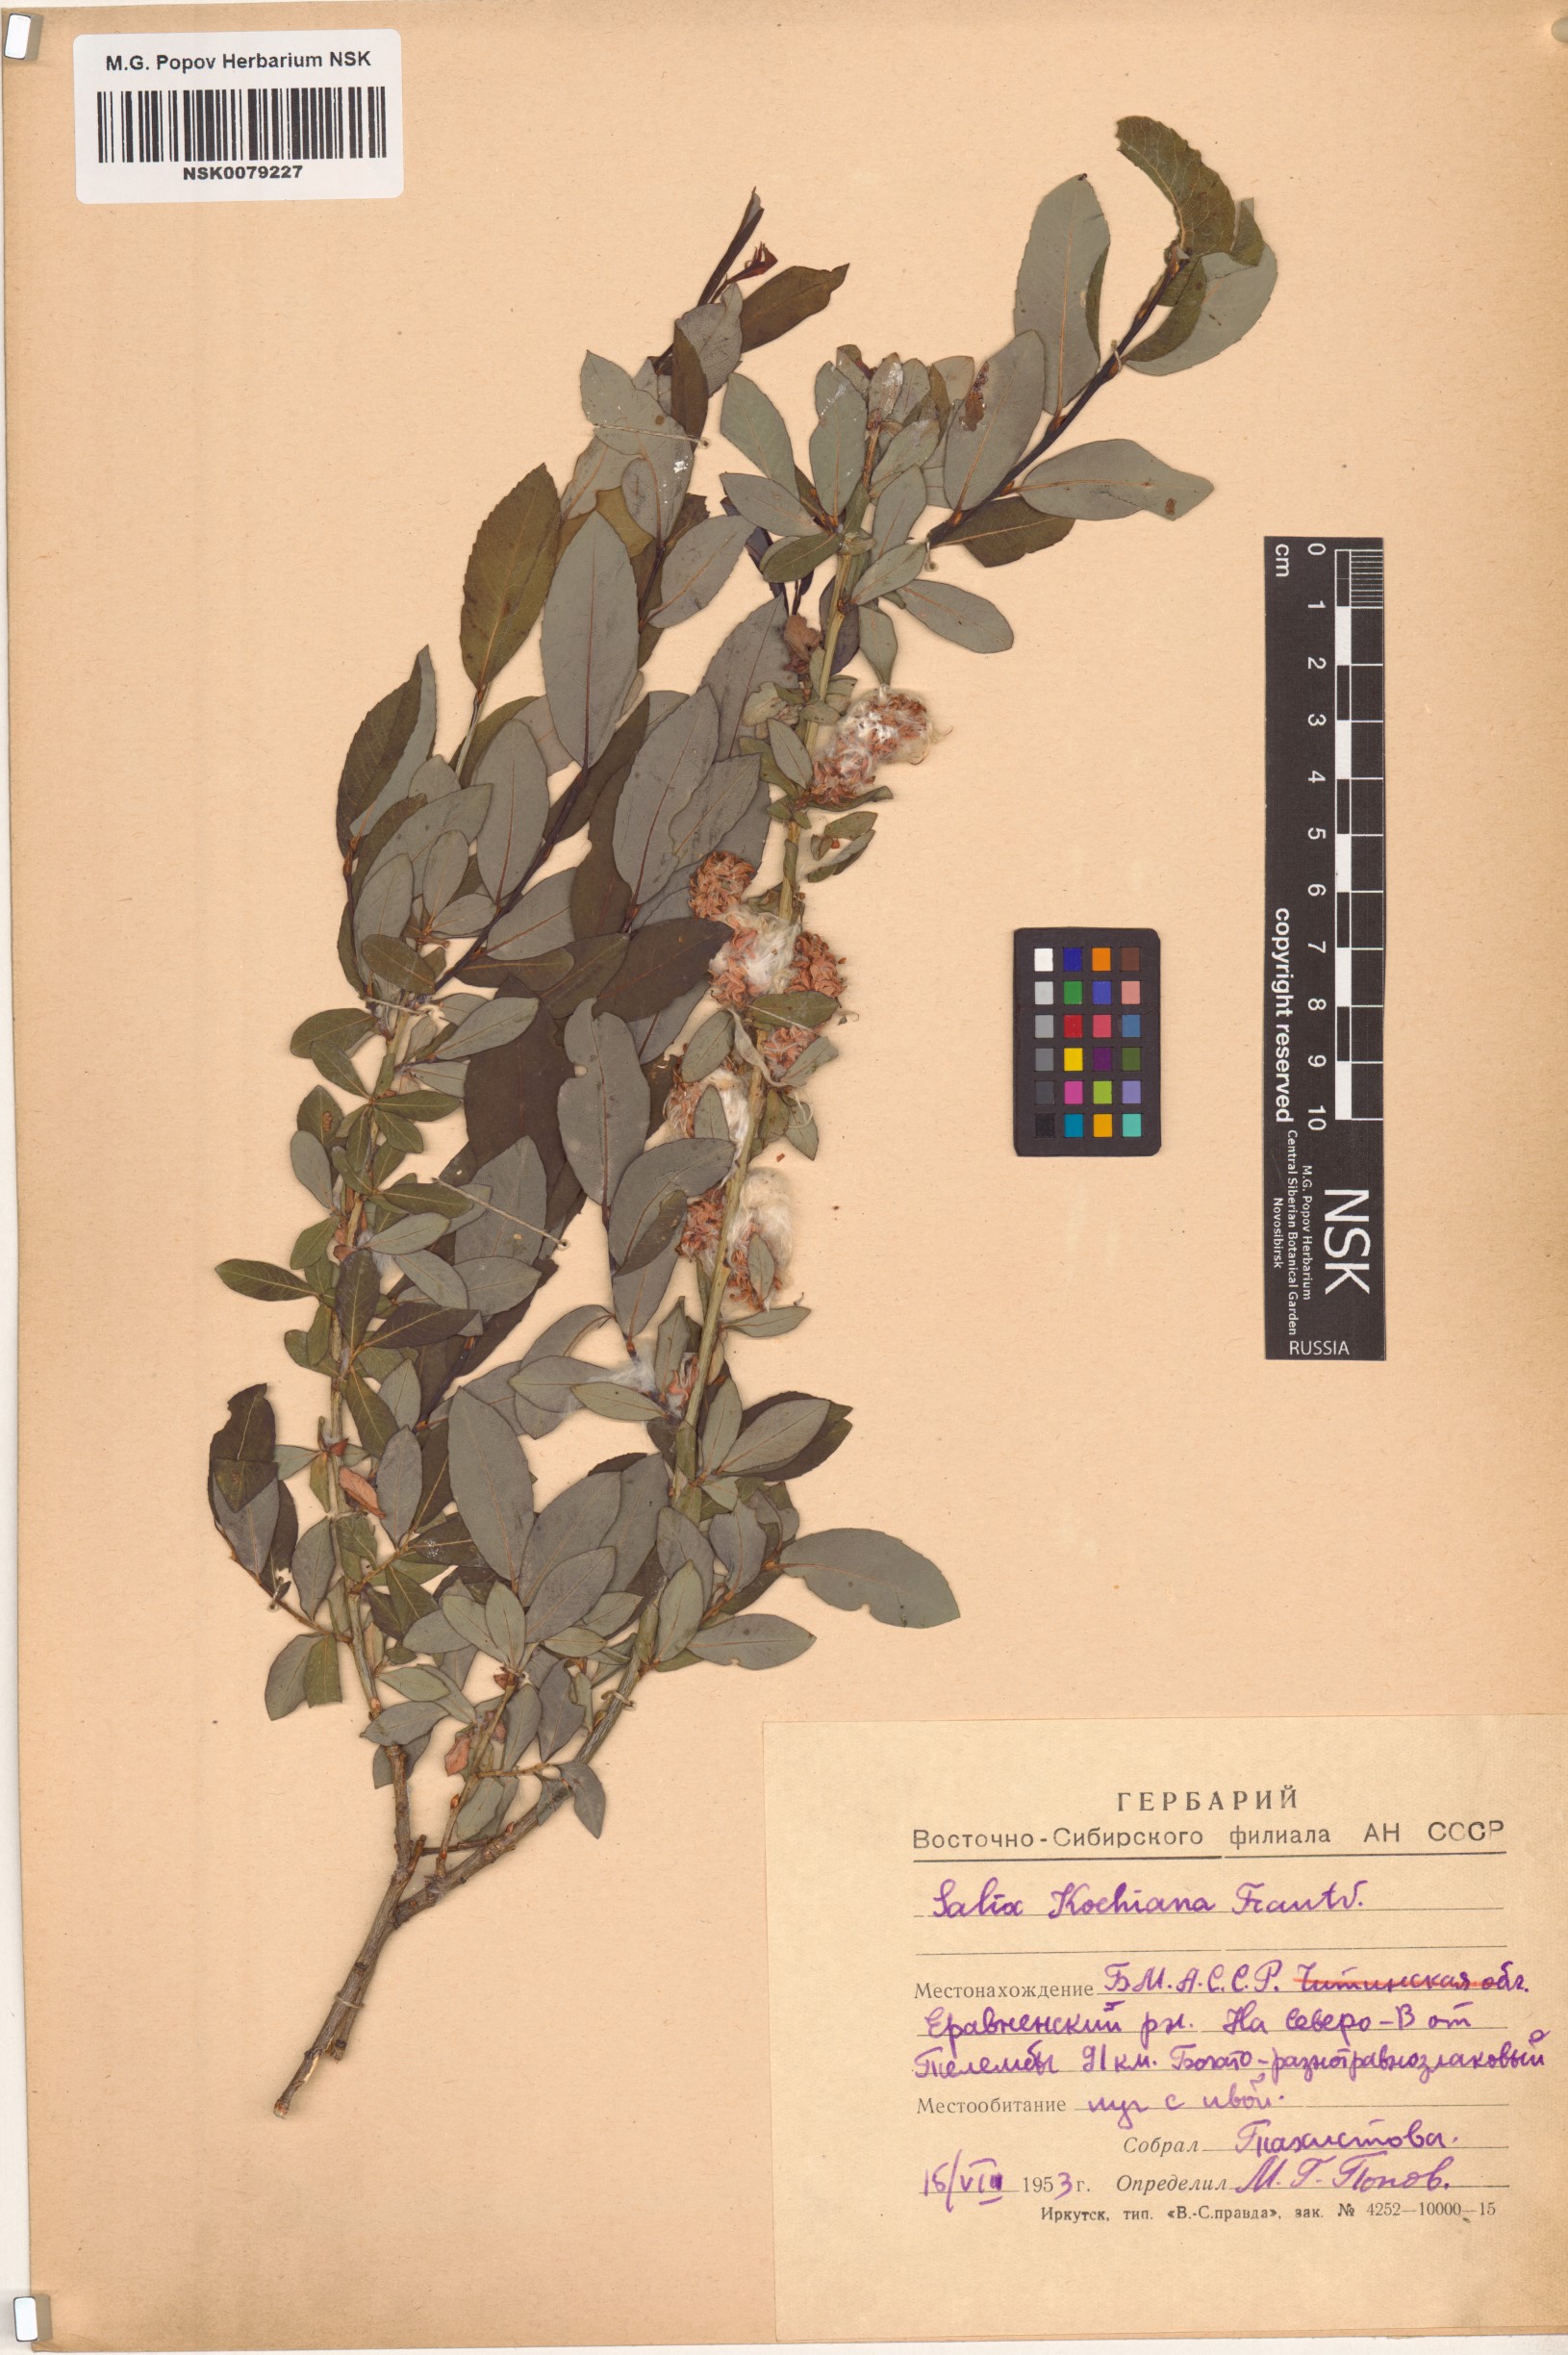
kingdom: Plantae
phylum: Tracheophyta
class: Magnoliopsida
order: Malpighiales
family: Salicaceae
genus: Salix
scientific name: Salix kochiana
